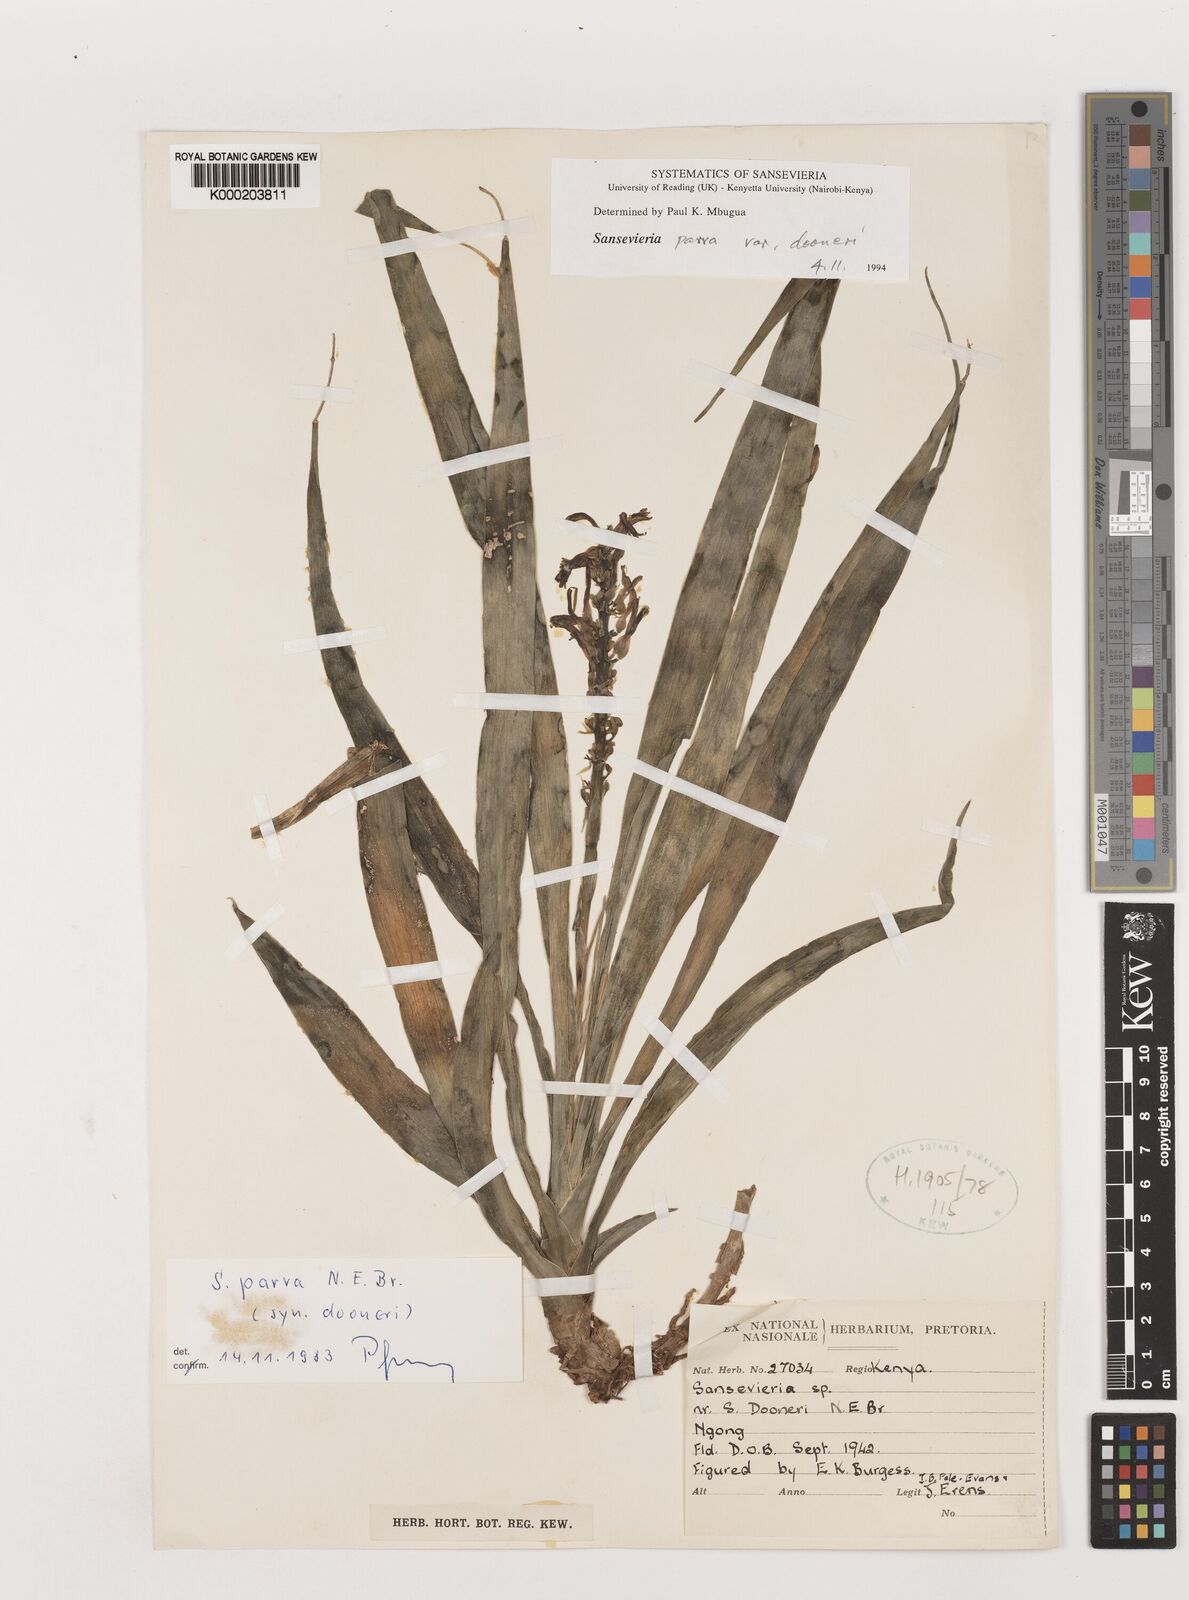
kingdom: Plantae
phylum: Tracheophyta
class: Liliopsida
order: Asparagales
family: Asparagaceae
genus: Dracaena
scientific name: Dracaena parva
